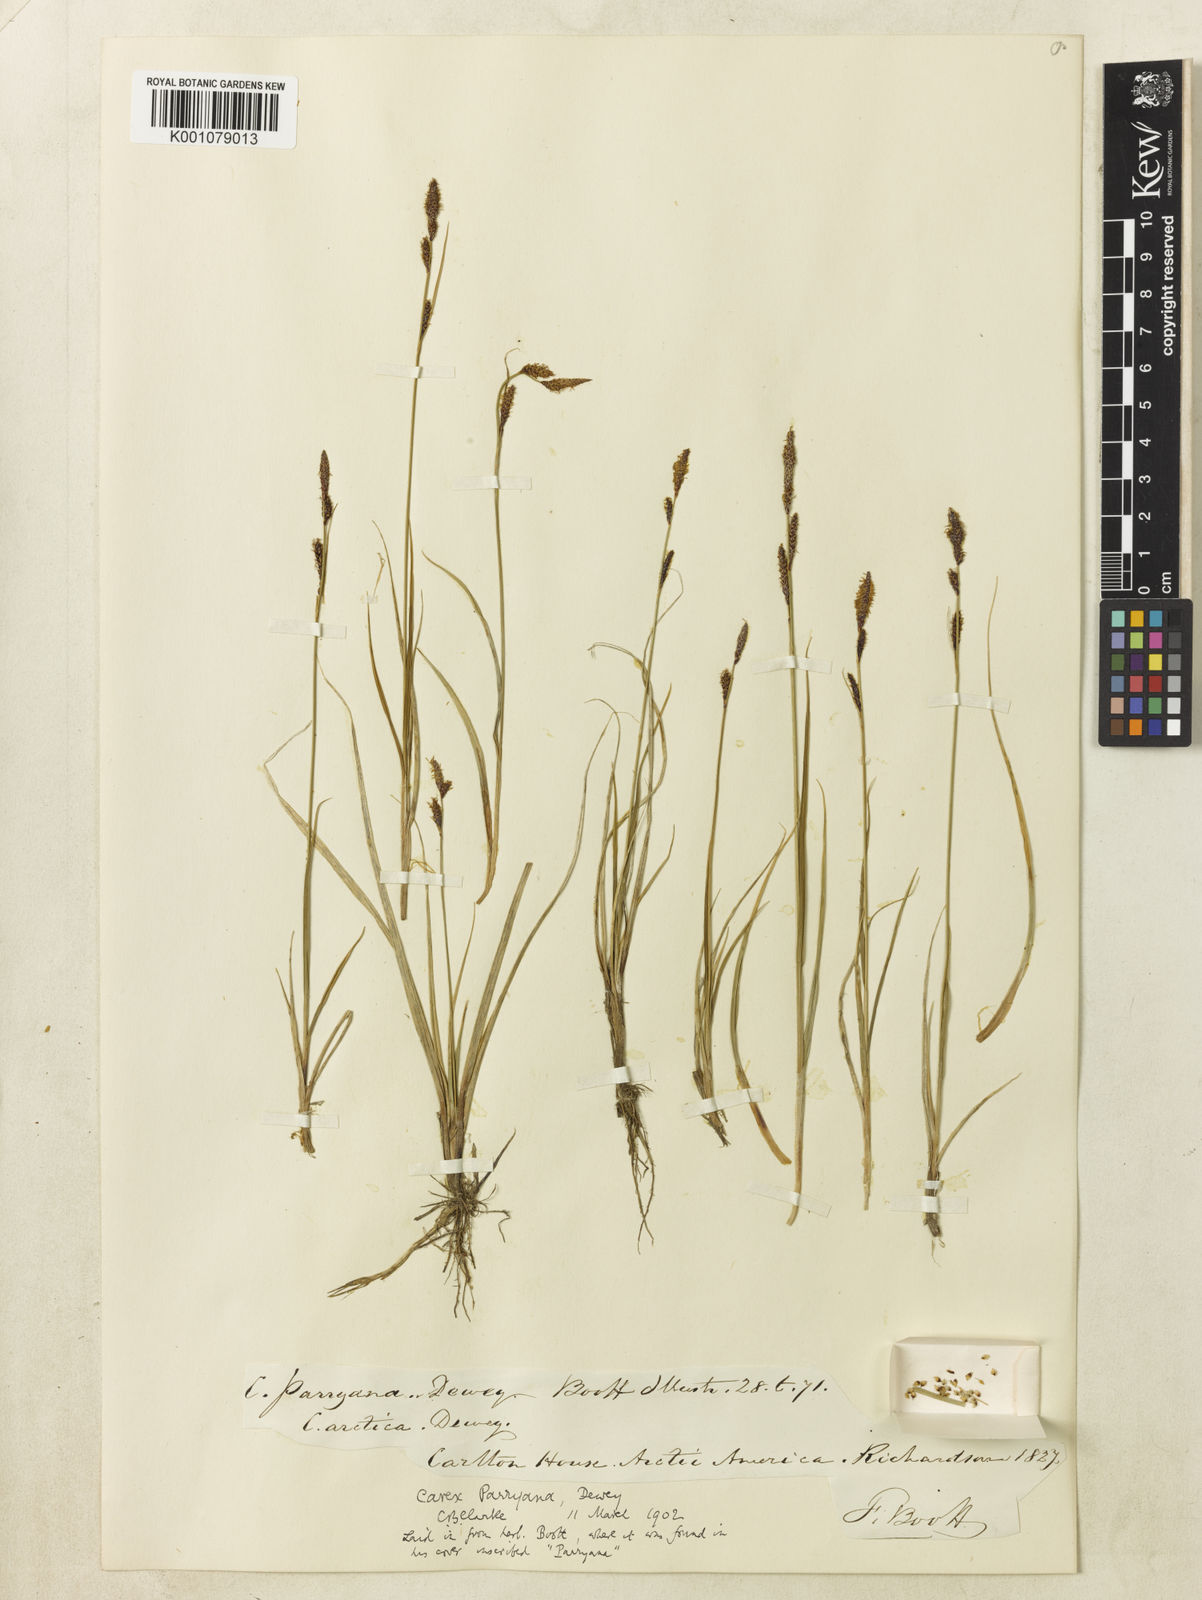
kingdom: Plantae
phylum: Tracheophyta
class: Liliopsida
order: Poales
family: Cyperaceae
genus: Carex
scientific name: Carex parryana
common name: Parry's sedge
